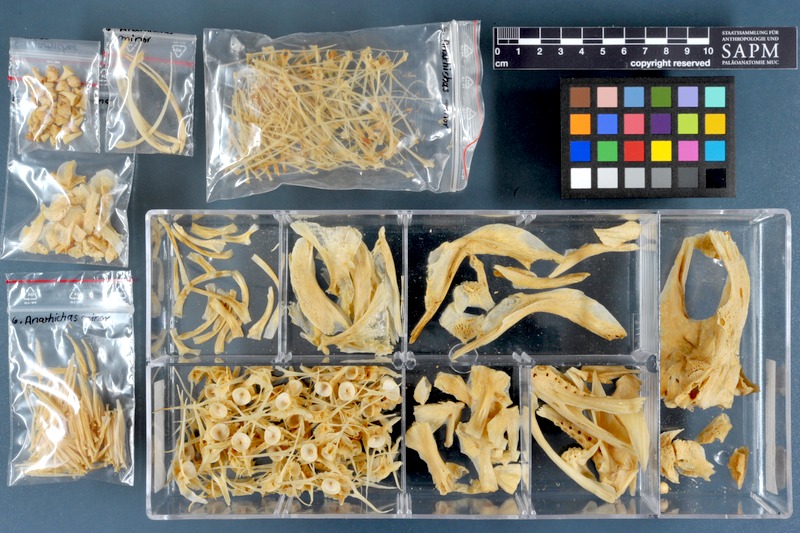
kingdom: Animalia
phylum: Chordata
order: Perciformes
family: Anarhichadidae
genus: Anarhichas
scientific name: Anarhichas minor
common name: Spotted catfish
